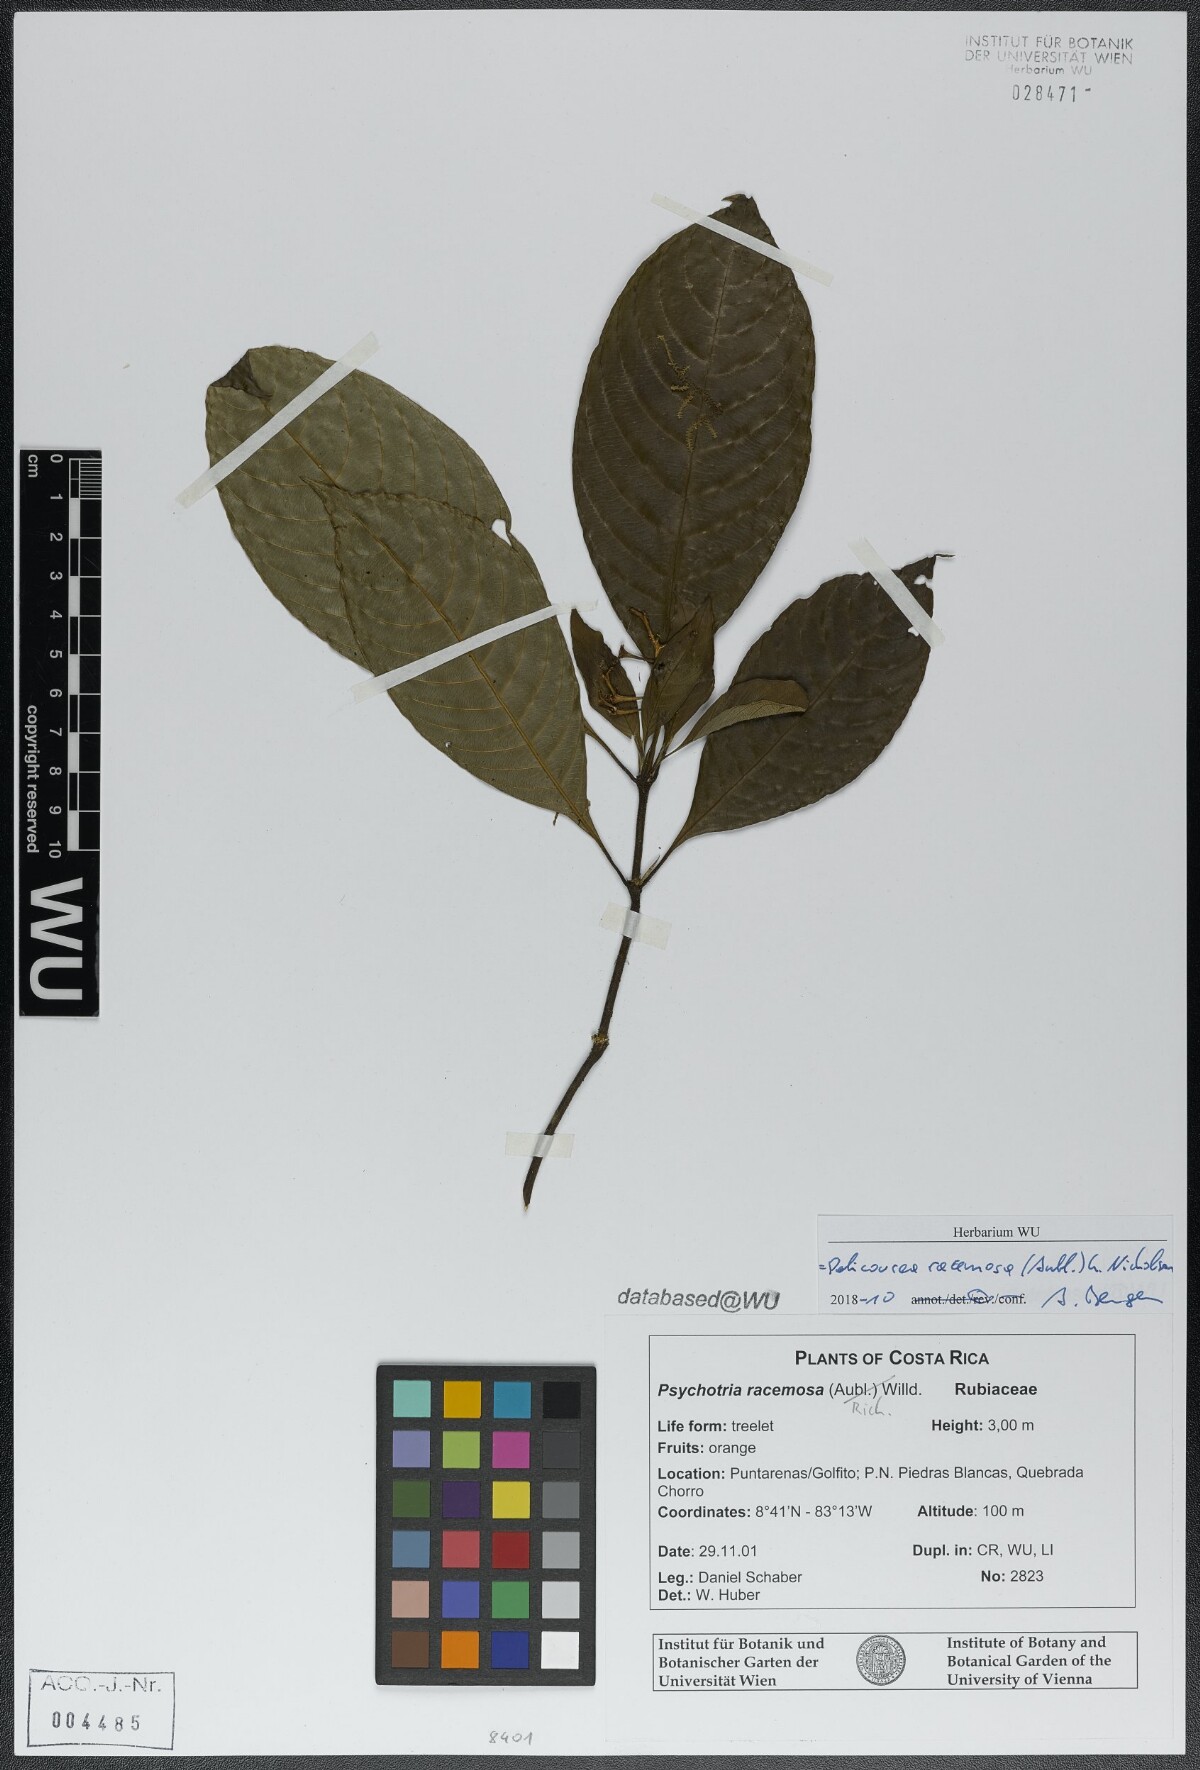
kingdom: Plantae
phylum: Tracheophyta
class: Magnoliopsida
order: Gentianales
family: Rubiaceae
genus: Palicourea
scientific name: Palicourea racemosa
